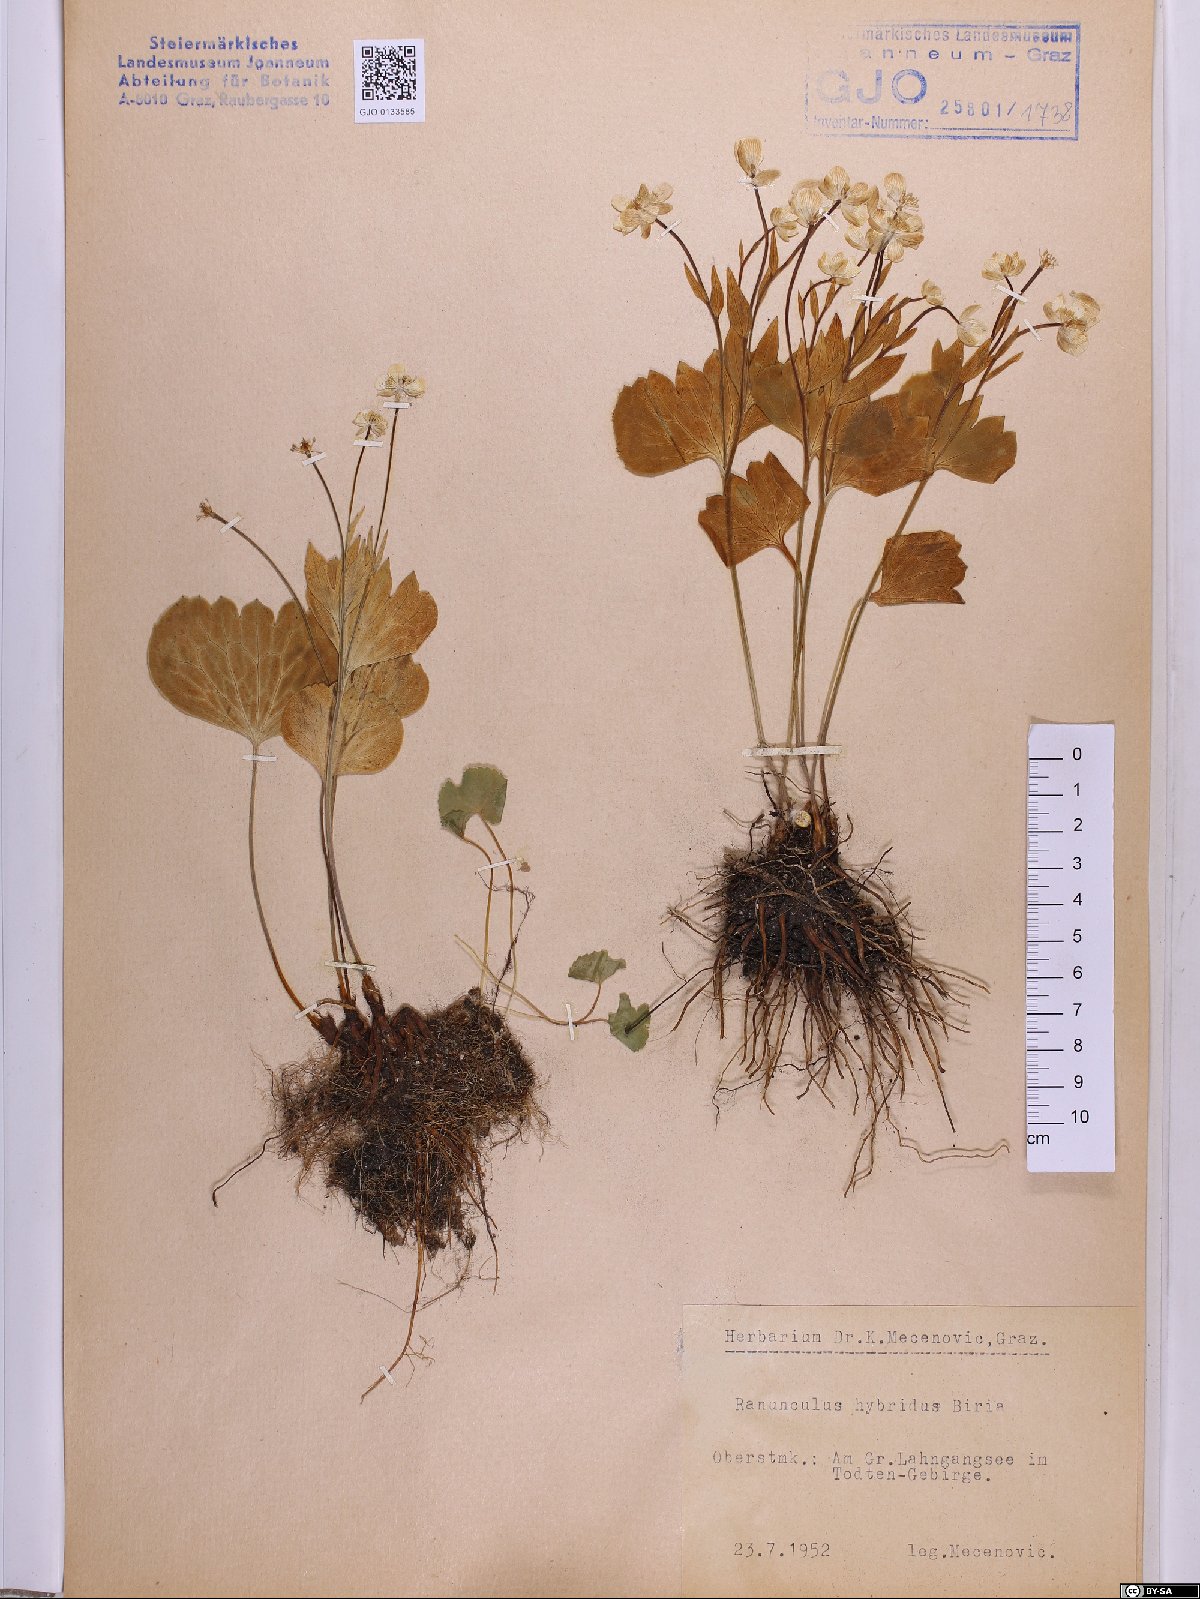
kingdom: Plantae
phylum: Tracheophyta
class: Magnoliopsida
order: Ranunculales
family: Ranunculaceae
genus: Ranunculus
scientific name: Ranunculus hybridus
